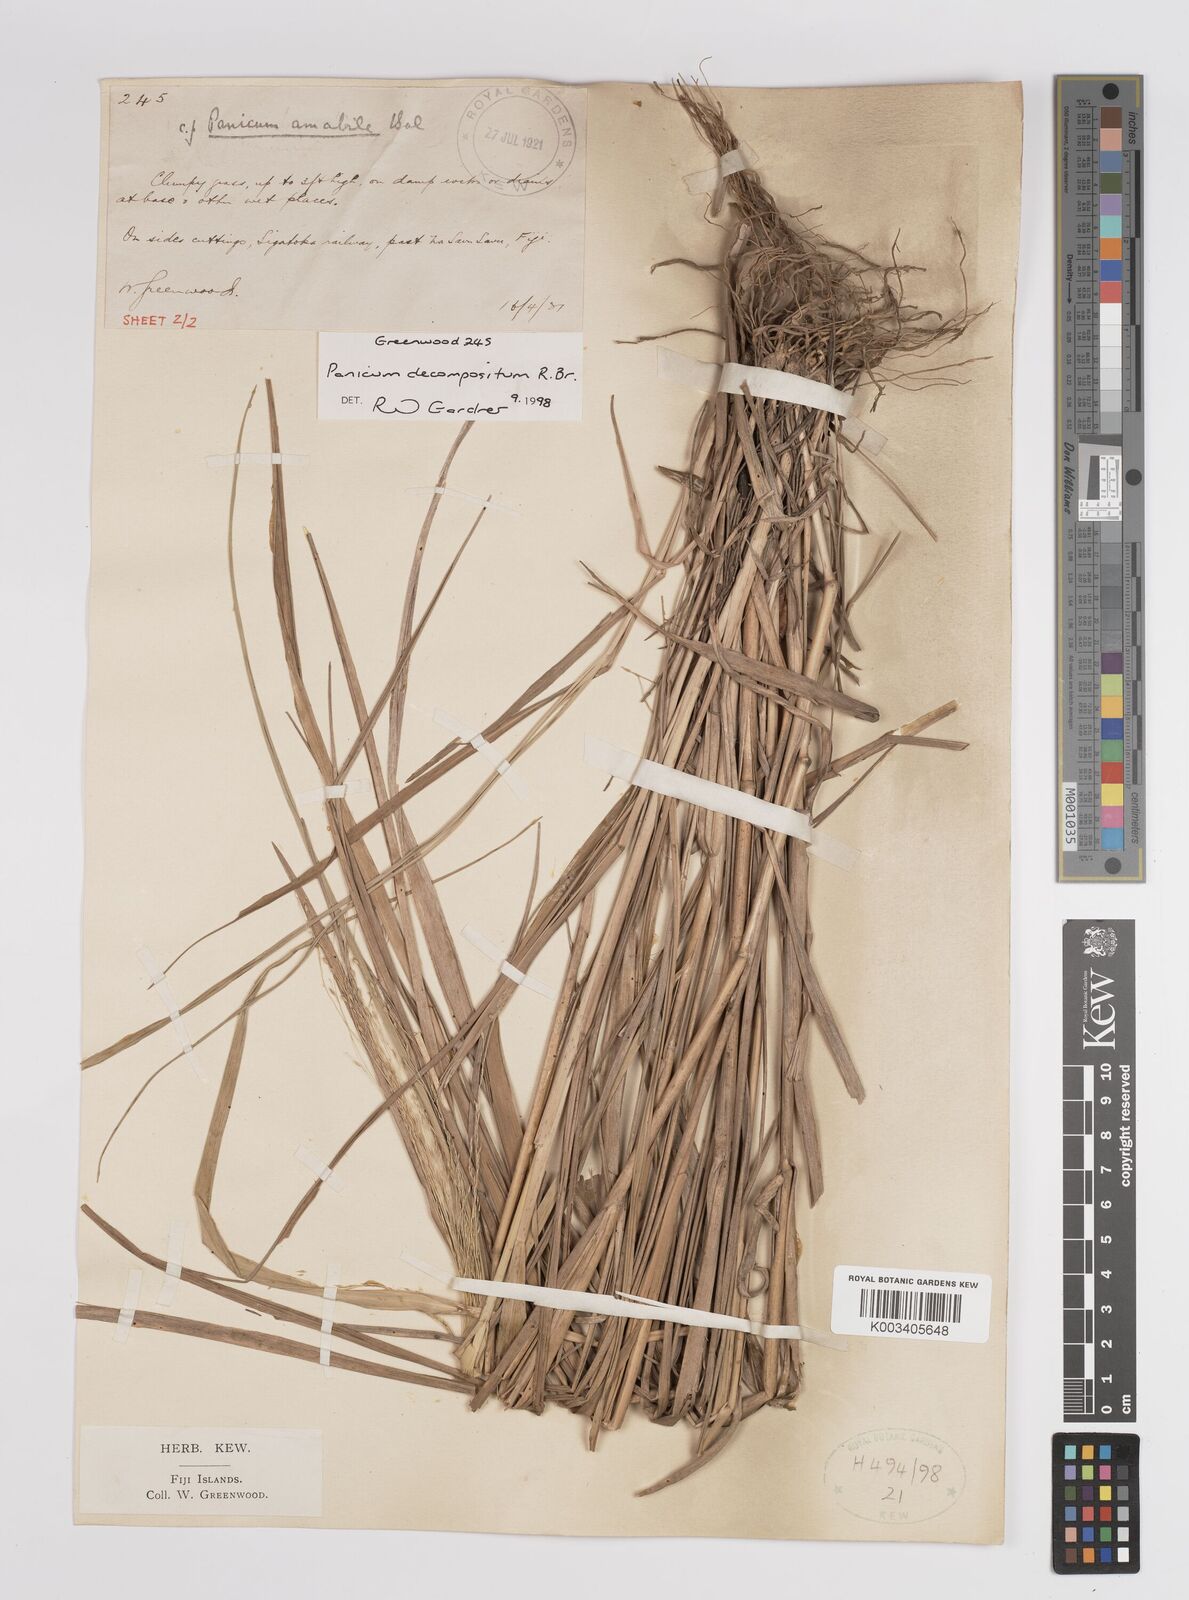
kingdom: Plantae
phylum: Tracheophyta
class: Liliopsida
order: Poales
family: Poaceae
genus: Panicum
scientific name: Panicum decompositum
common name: Australian millet
